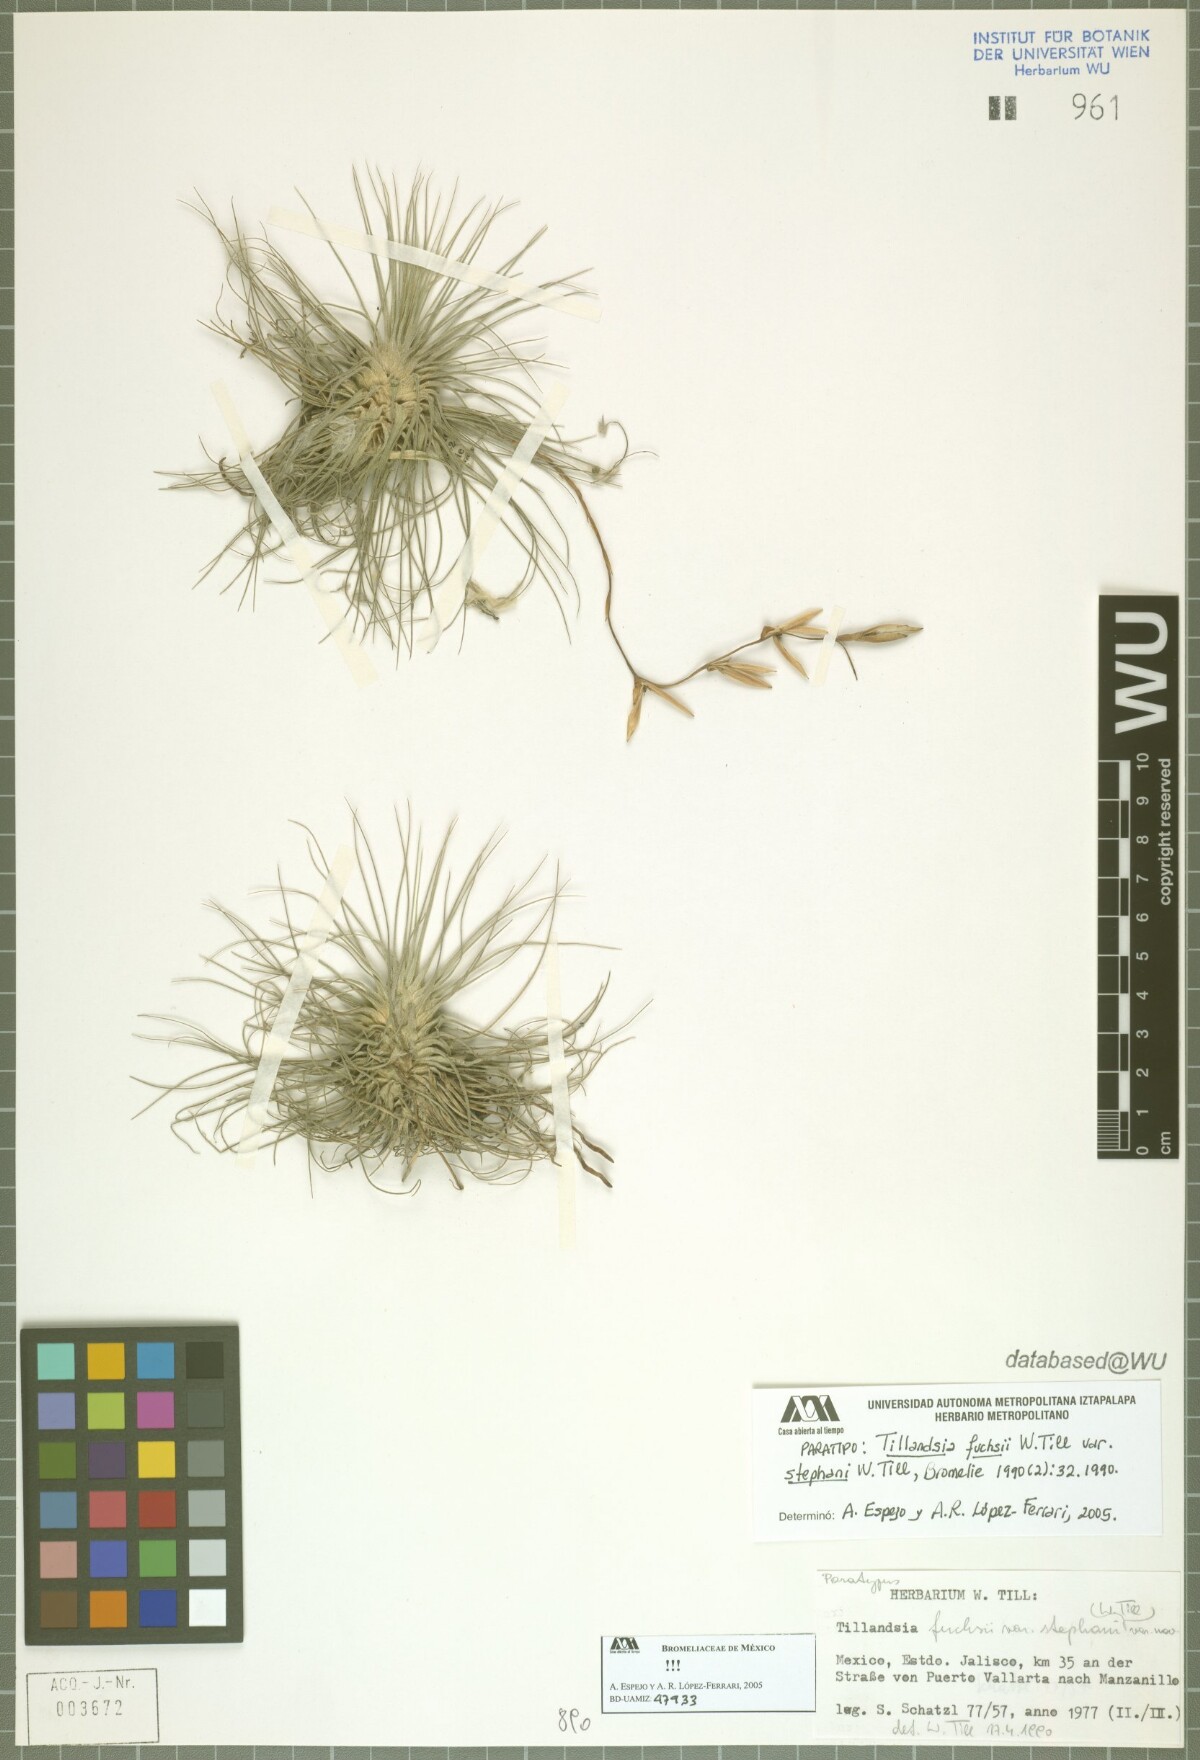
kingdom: Plantae
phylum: Tracheophyta
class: Liliopsida
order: Poales
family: Bromeliaceae
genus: Tillandsia
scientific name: Tillandsia fuchsii
